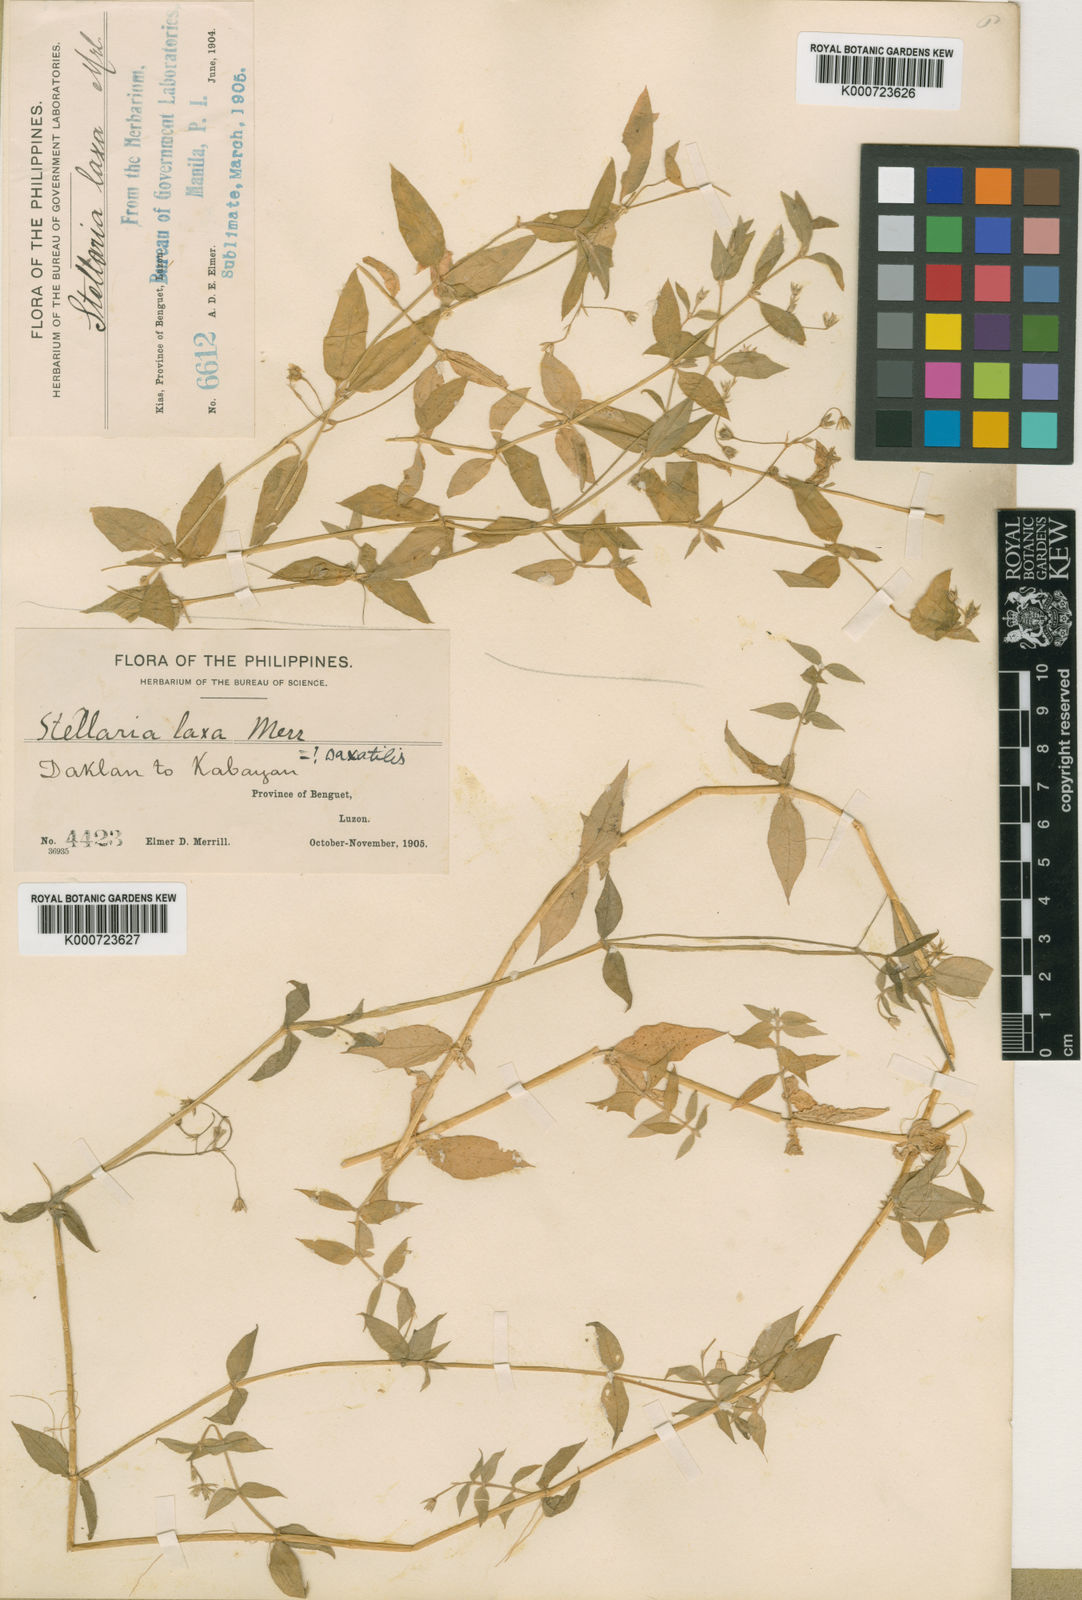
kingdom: Plantae
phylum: Tracheophyta
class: Magnoliopsida
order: Caryophyllales
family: Caryophyllaceae
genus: Stellaria
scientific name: Stellaria vestita
